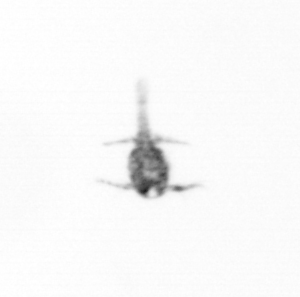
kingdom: Animalia
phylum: Arthropoda
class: Copepoda
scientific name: Copepoda
